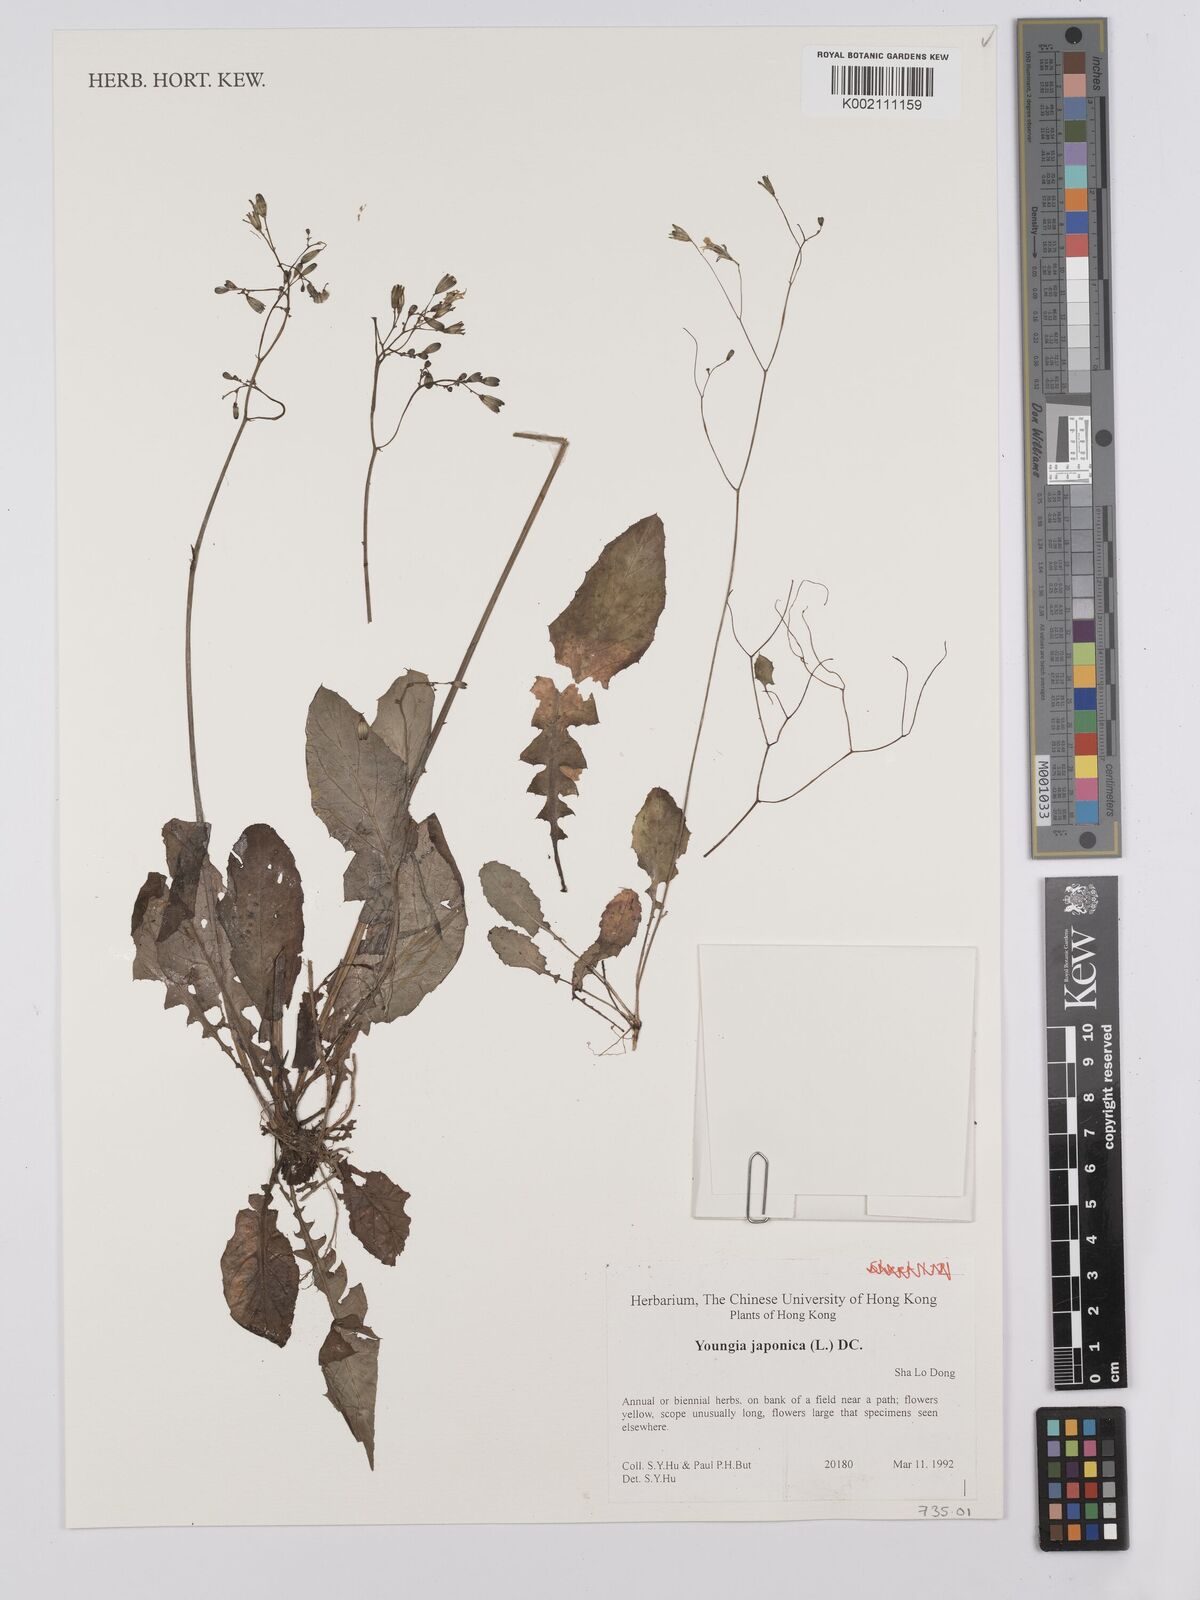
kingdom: Plantae
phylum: Tracheophyta
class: Magnoliopsida
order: Asterales
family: Asteraceae
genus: Youngia
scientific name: Youngia japonica
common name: Oriental false hawksbeard
